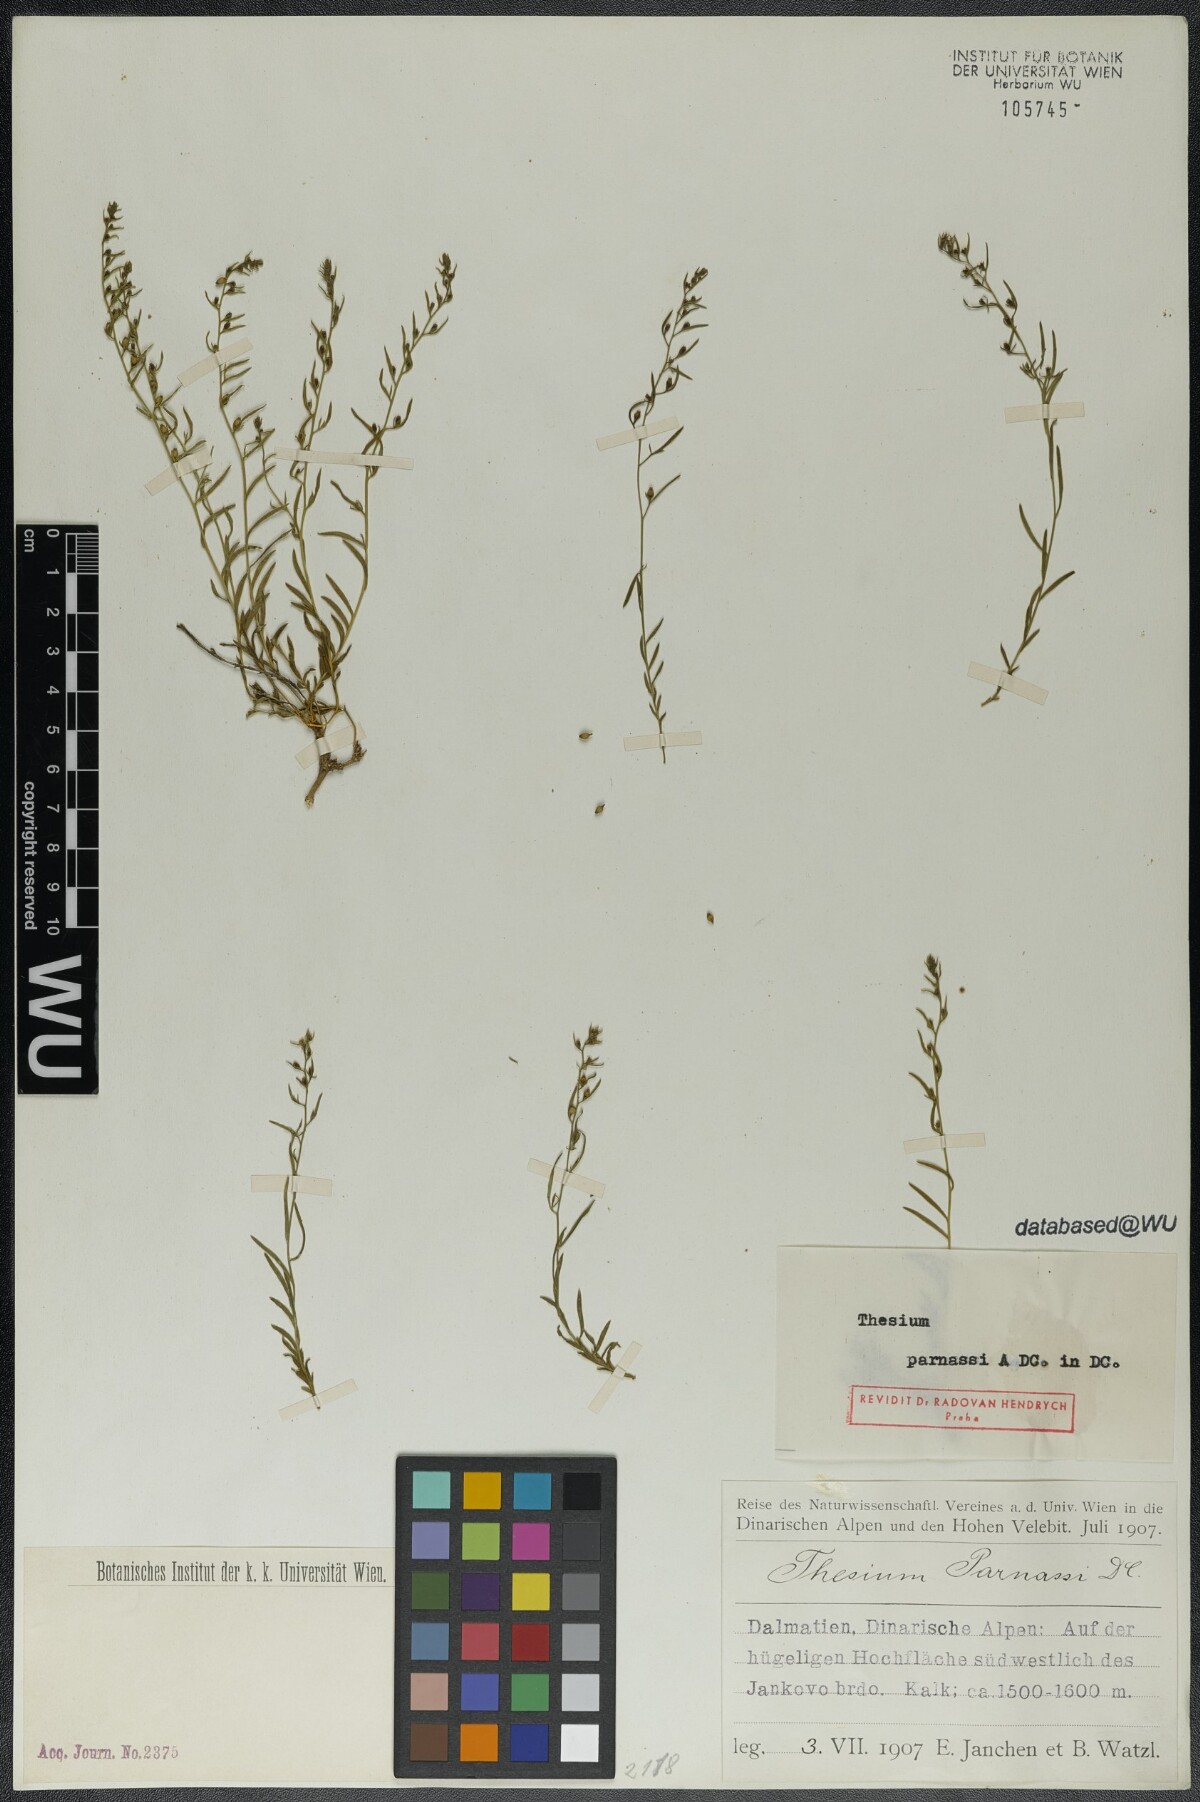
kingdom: Plantae
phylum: Tracheophyta
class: Magnoliopsida
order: Santalales
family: Thesiaceae
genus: Thesium
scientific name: Thesium parnassi
